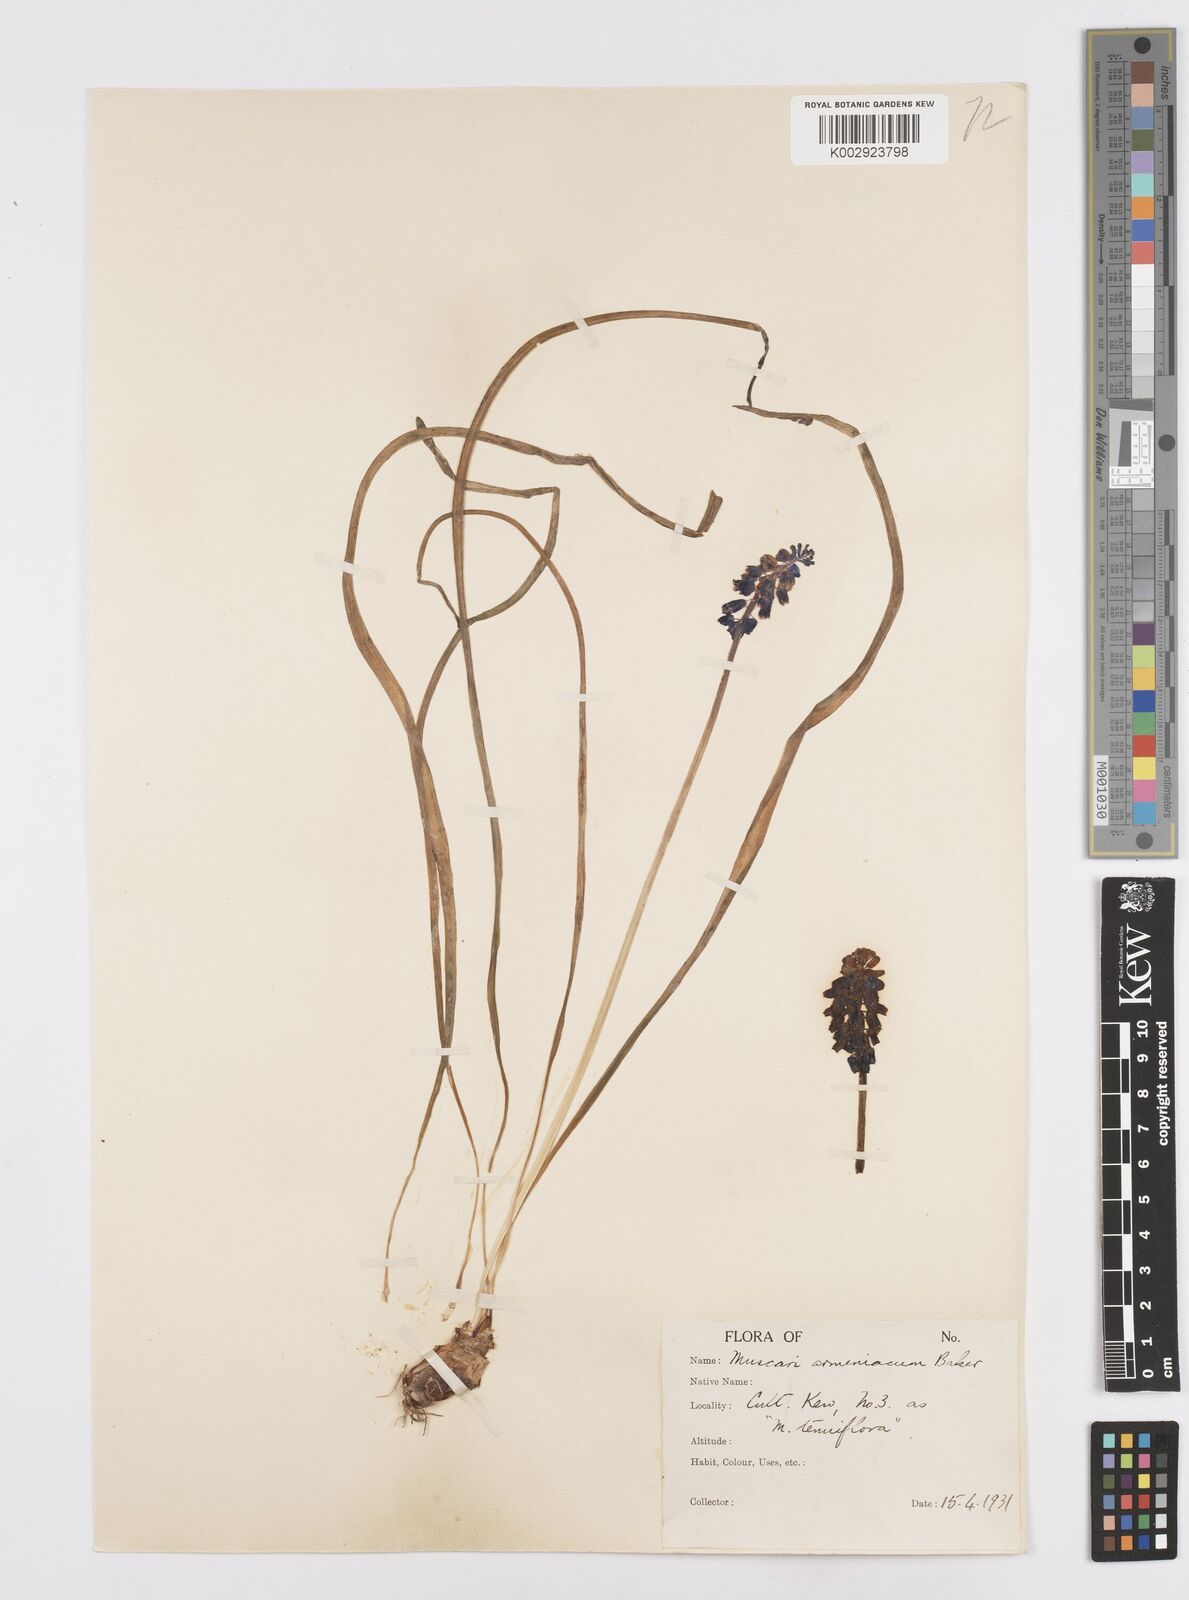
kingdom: Plantae
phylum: Tracheophyta
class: Liliopsida
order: Asparagales
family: Asparagaceae
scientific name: Asparagaceae
